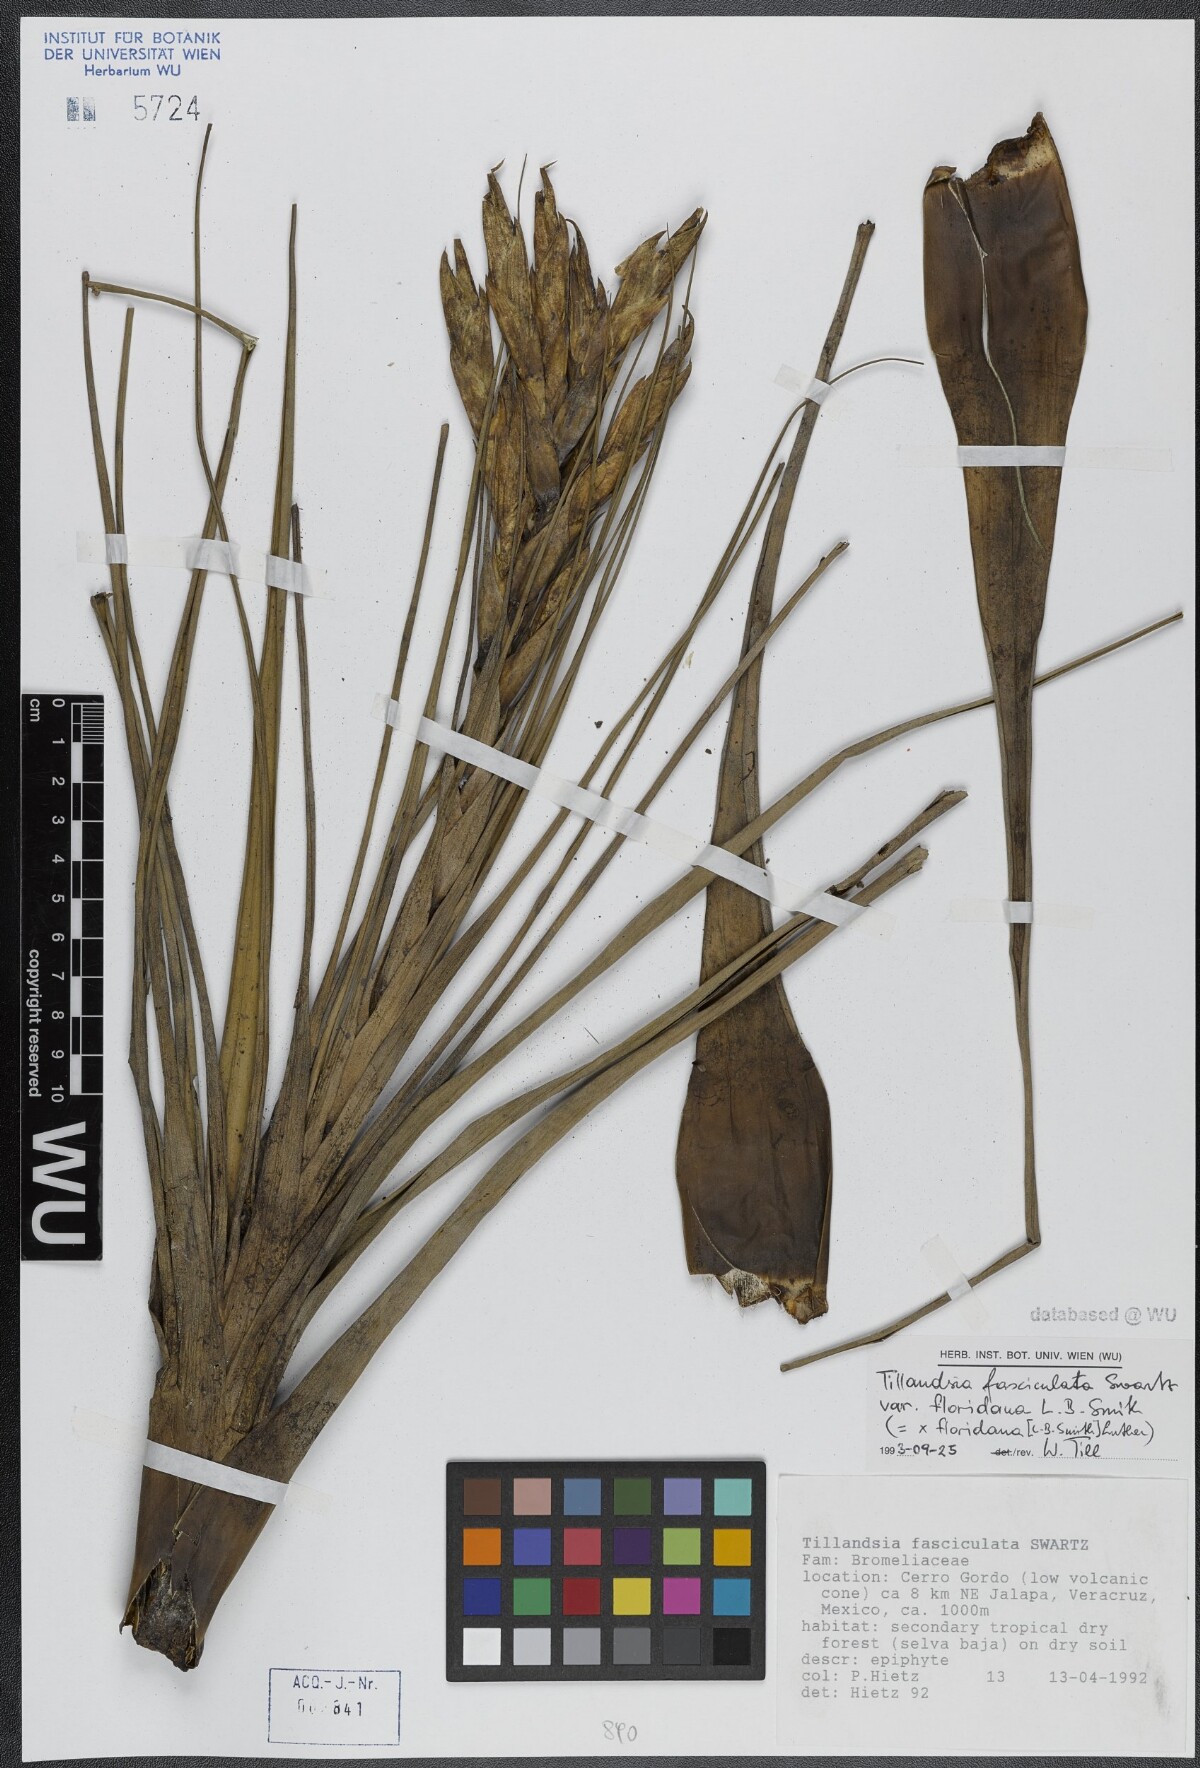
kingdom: Plantae
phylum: Tracheophyta
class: Liliopsida
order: Poales
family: Bromeliaceae
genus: Tillandsia
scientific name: Tillandsia floridana
